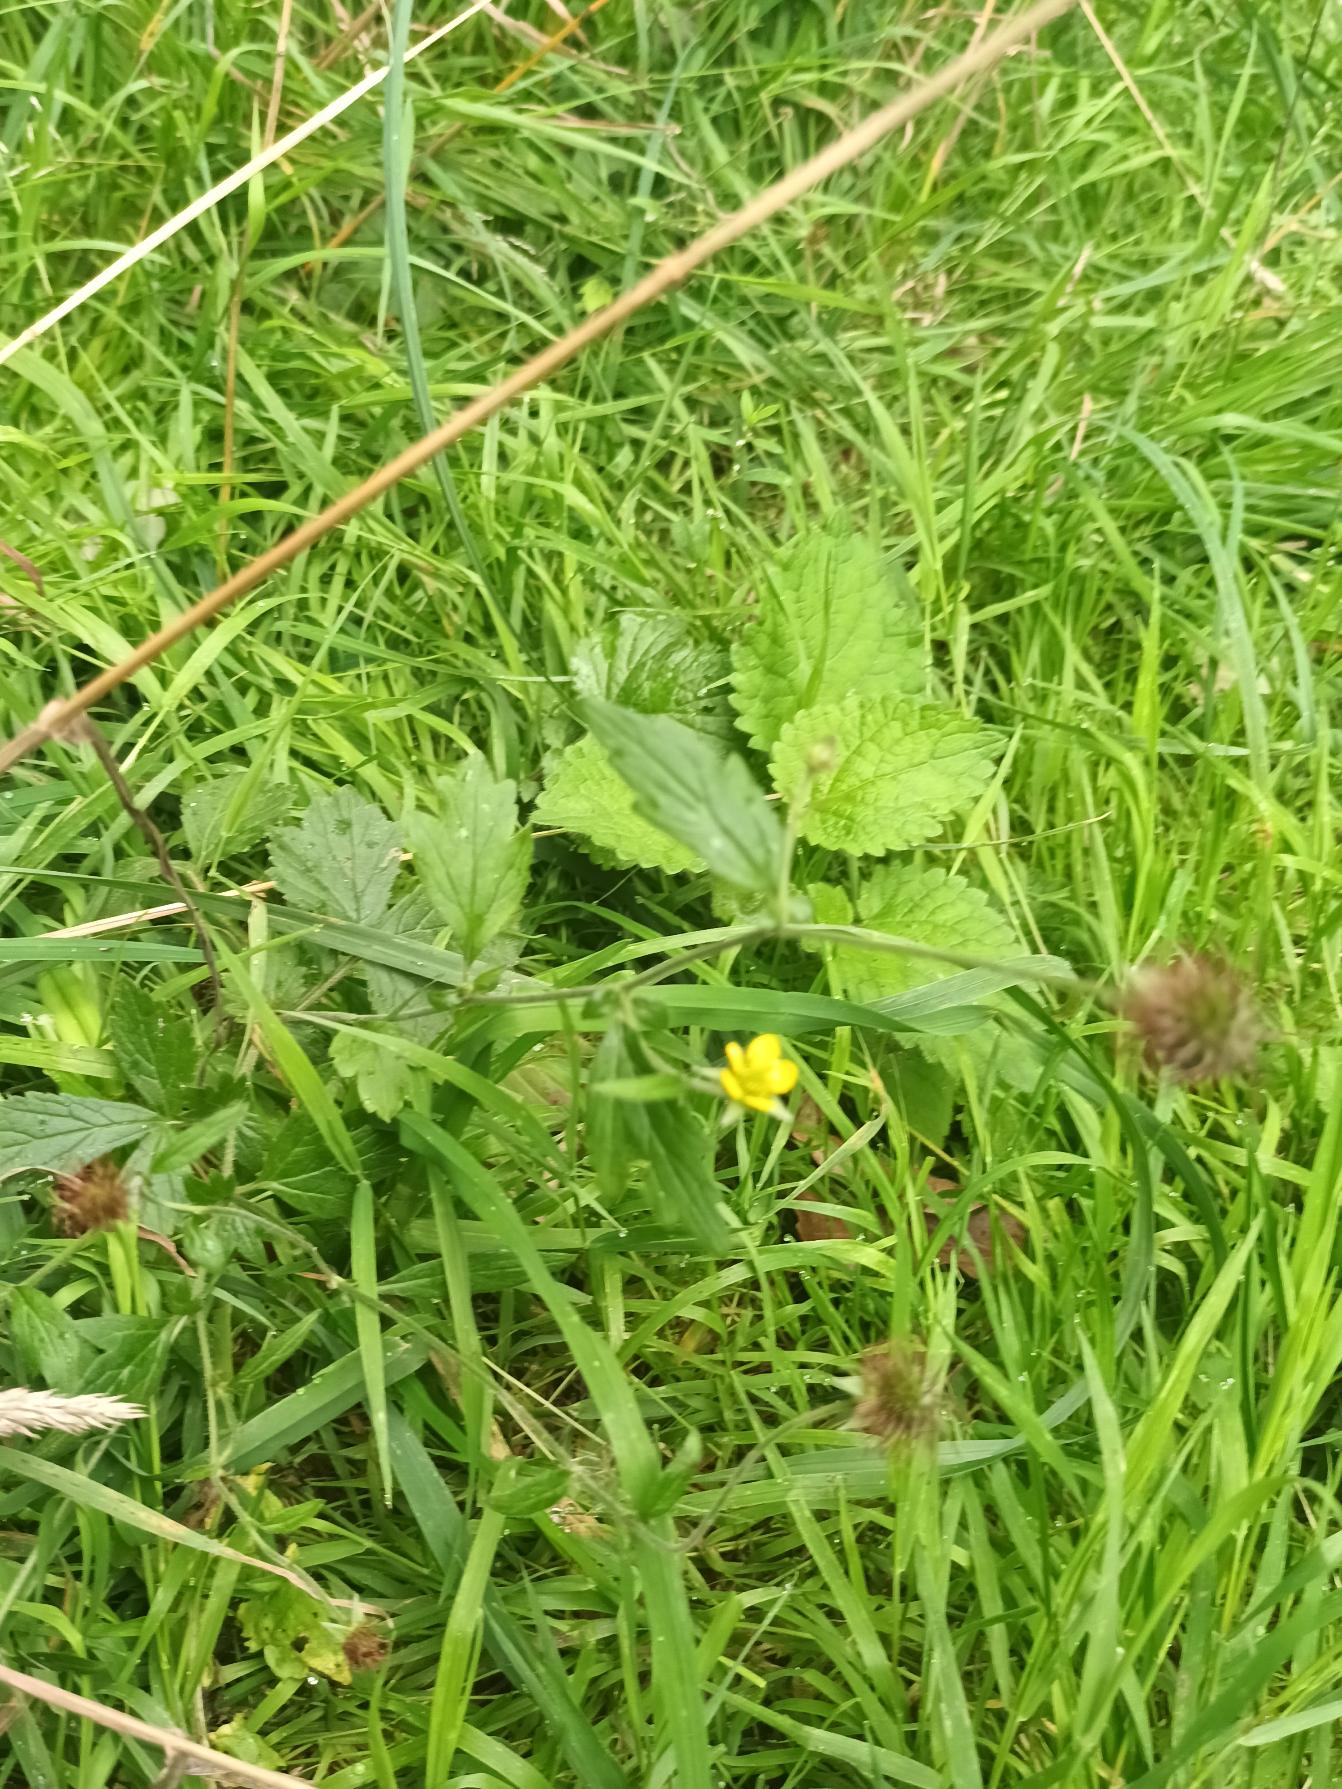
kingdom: Plantae
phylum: Tracheophyta
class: Magnoliopsida
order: Rosales
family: Rosaceae
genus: Geum
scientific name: Geum urbanum
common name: Feber-nellikerod
